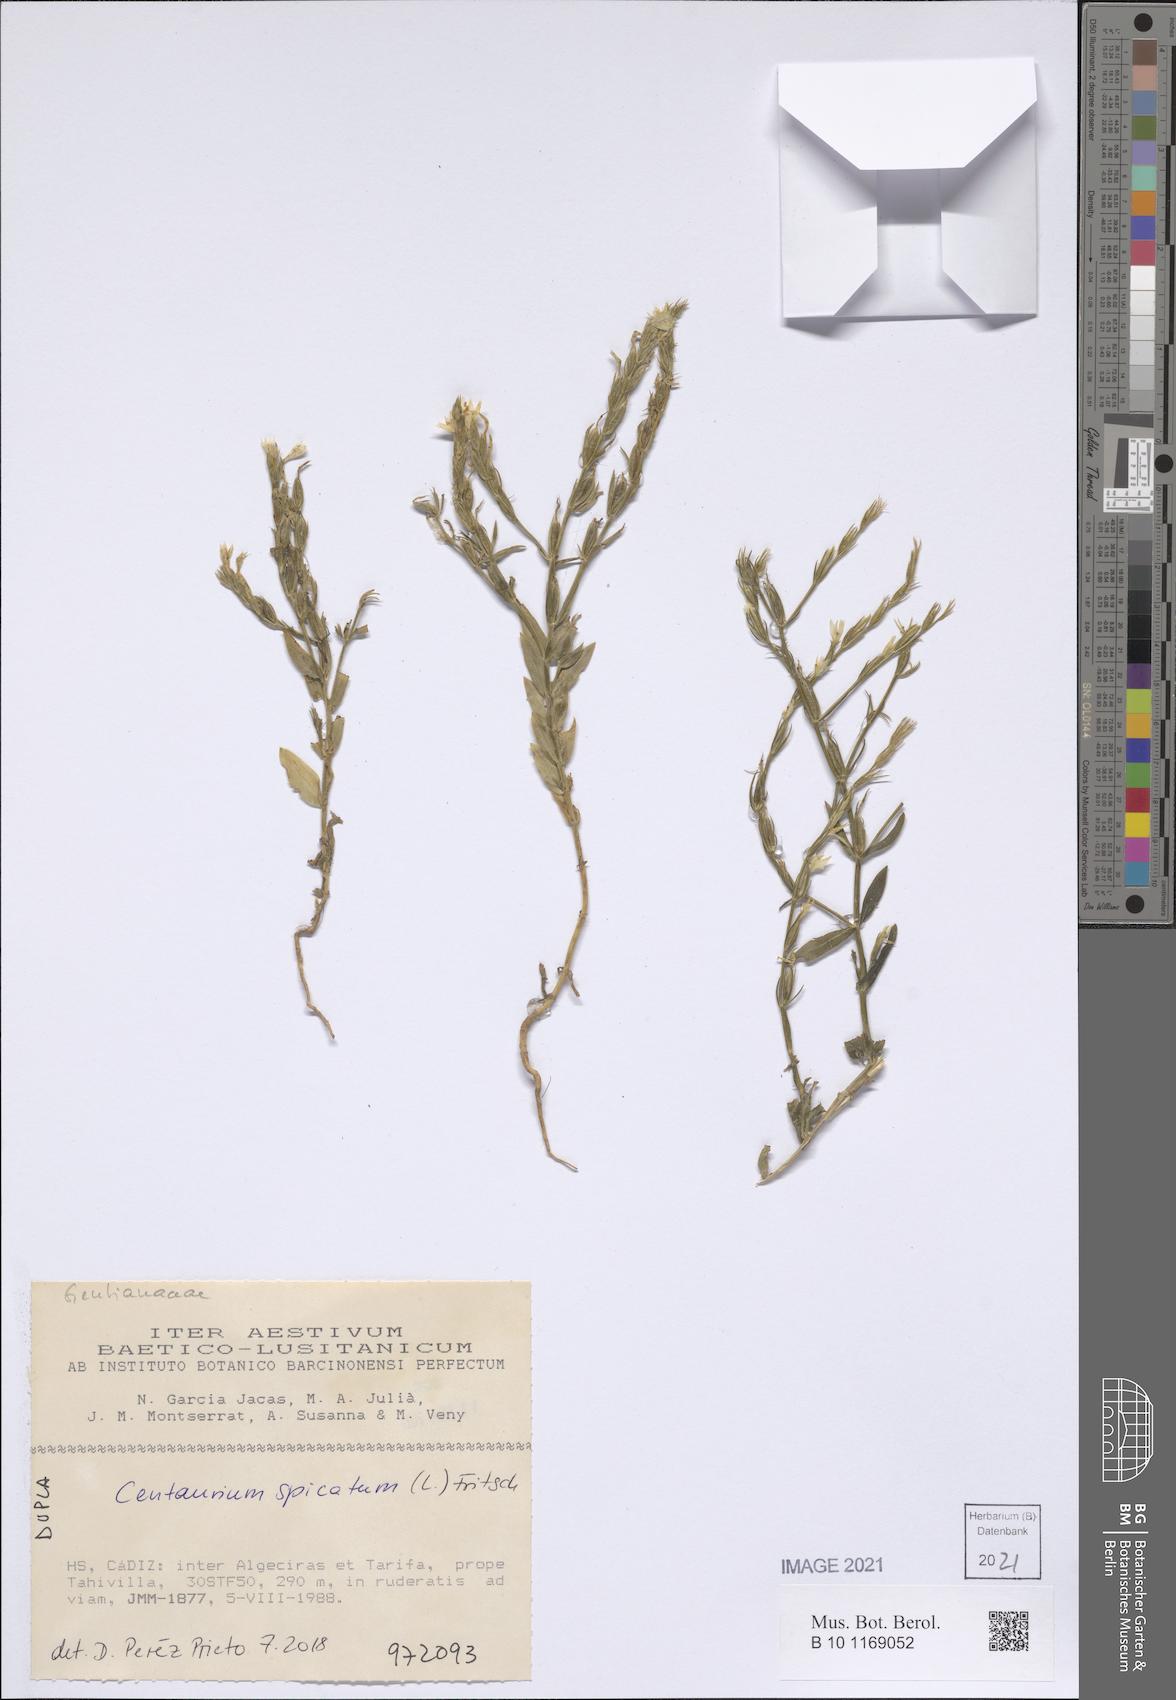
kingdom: Plantae
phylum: Tracheophyta
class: Magnoliopsida
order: Gentianales
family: Gentianaceae
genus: Schenkia
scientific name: Schenkia spicata
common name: Spiked centaury
